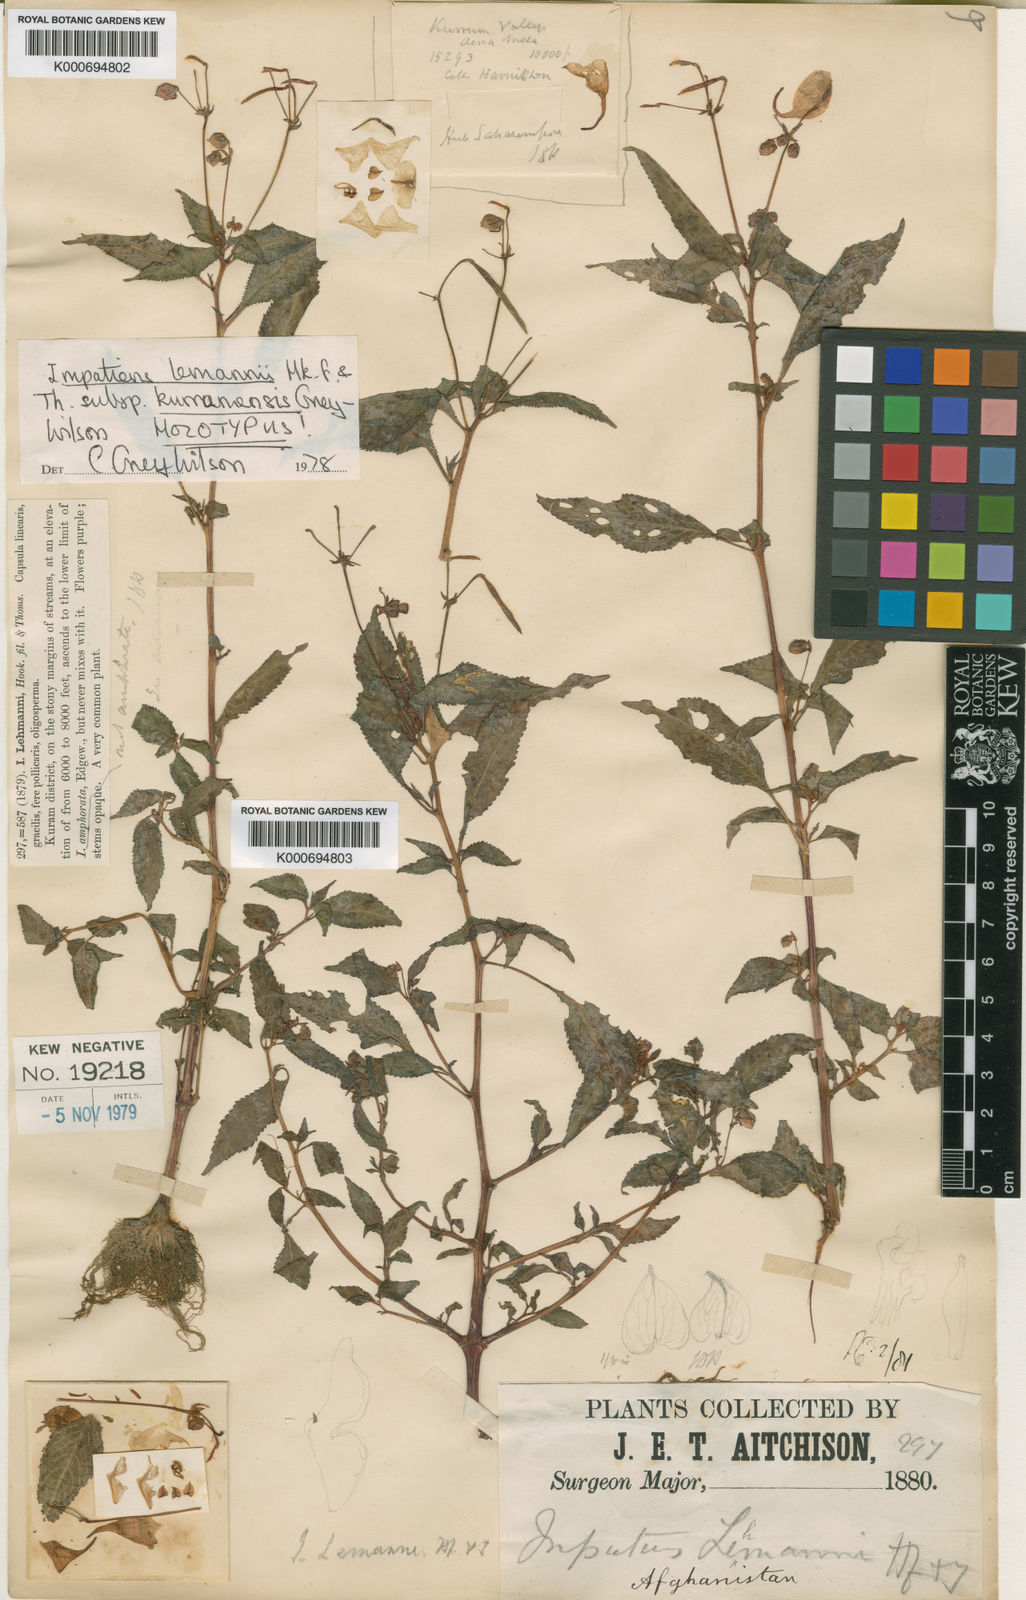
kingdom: Plantae
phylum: Tracheophyta
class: Magnoliopsida
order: Ericales
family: Balsaminaceae
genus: Impatiens
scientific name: Impatiens lemannii
